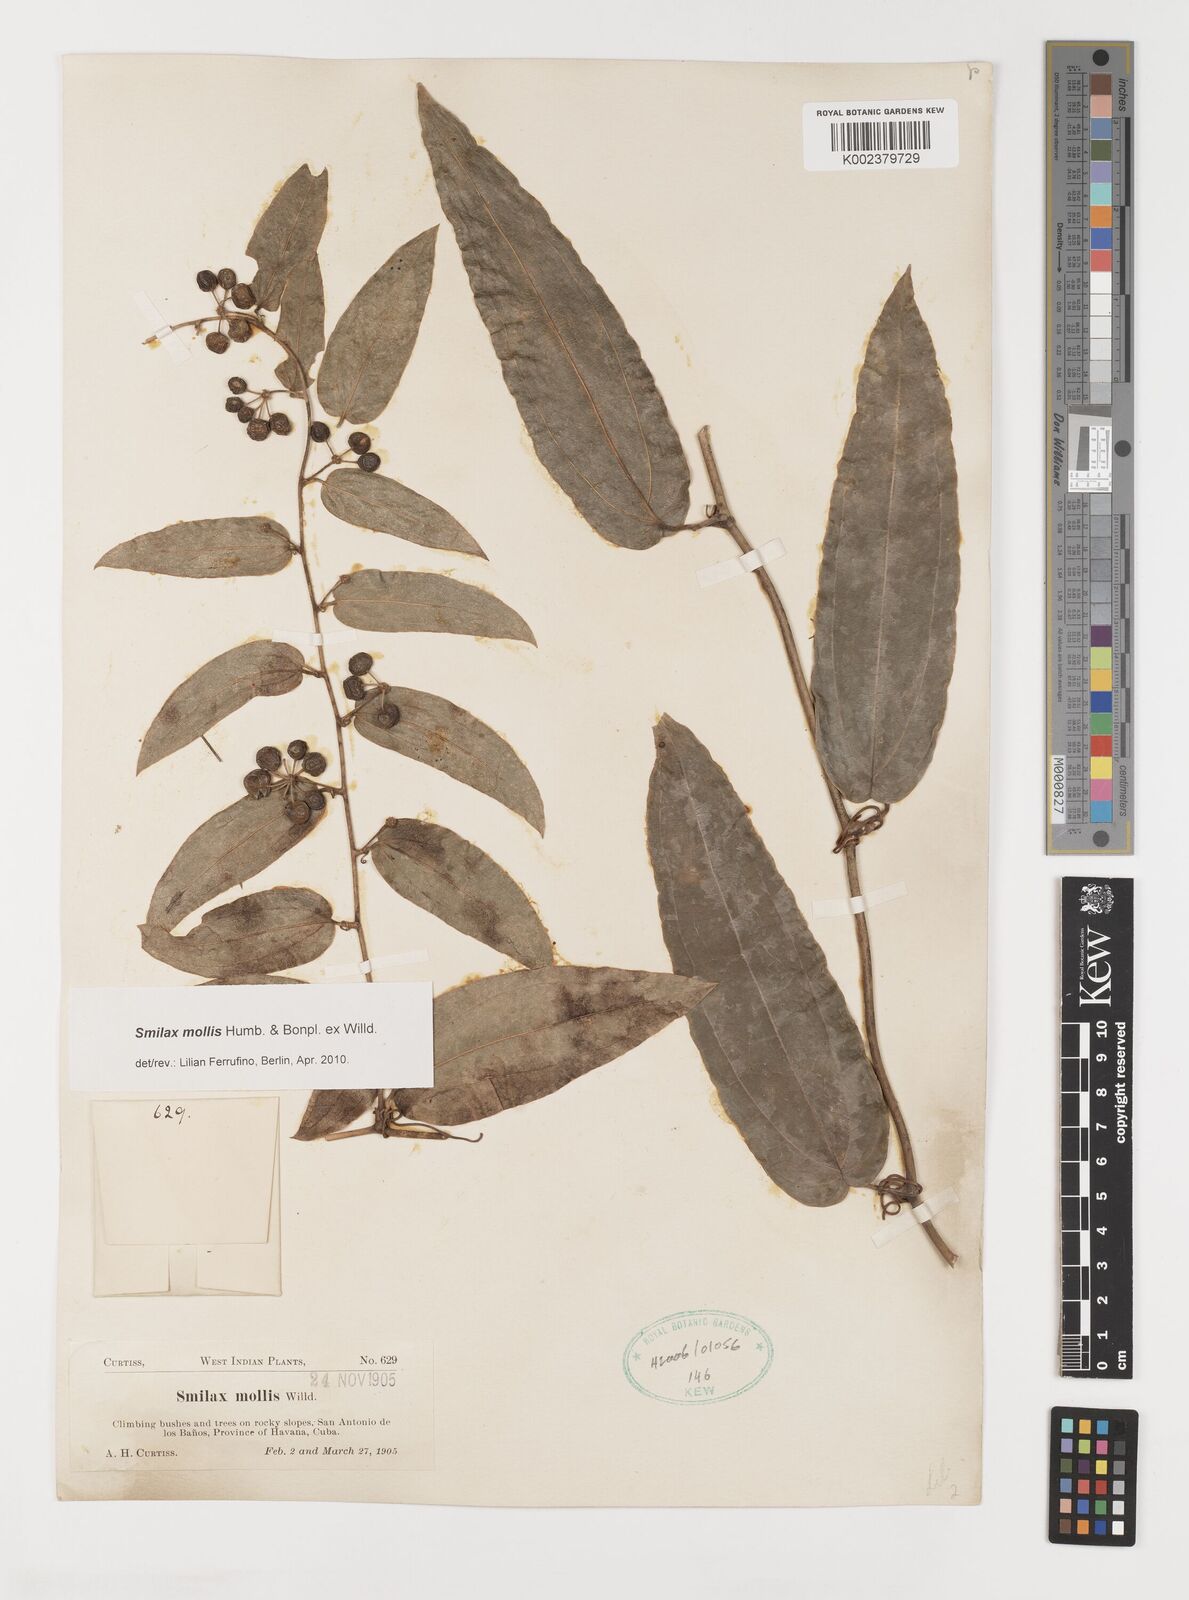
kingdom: Plantae
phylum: Tracheophyta
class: Liliopsida
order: Liliales
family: Smilacaceae
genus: Smilax
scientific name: Smilax mollis
